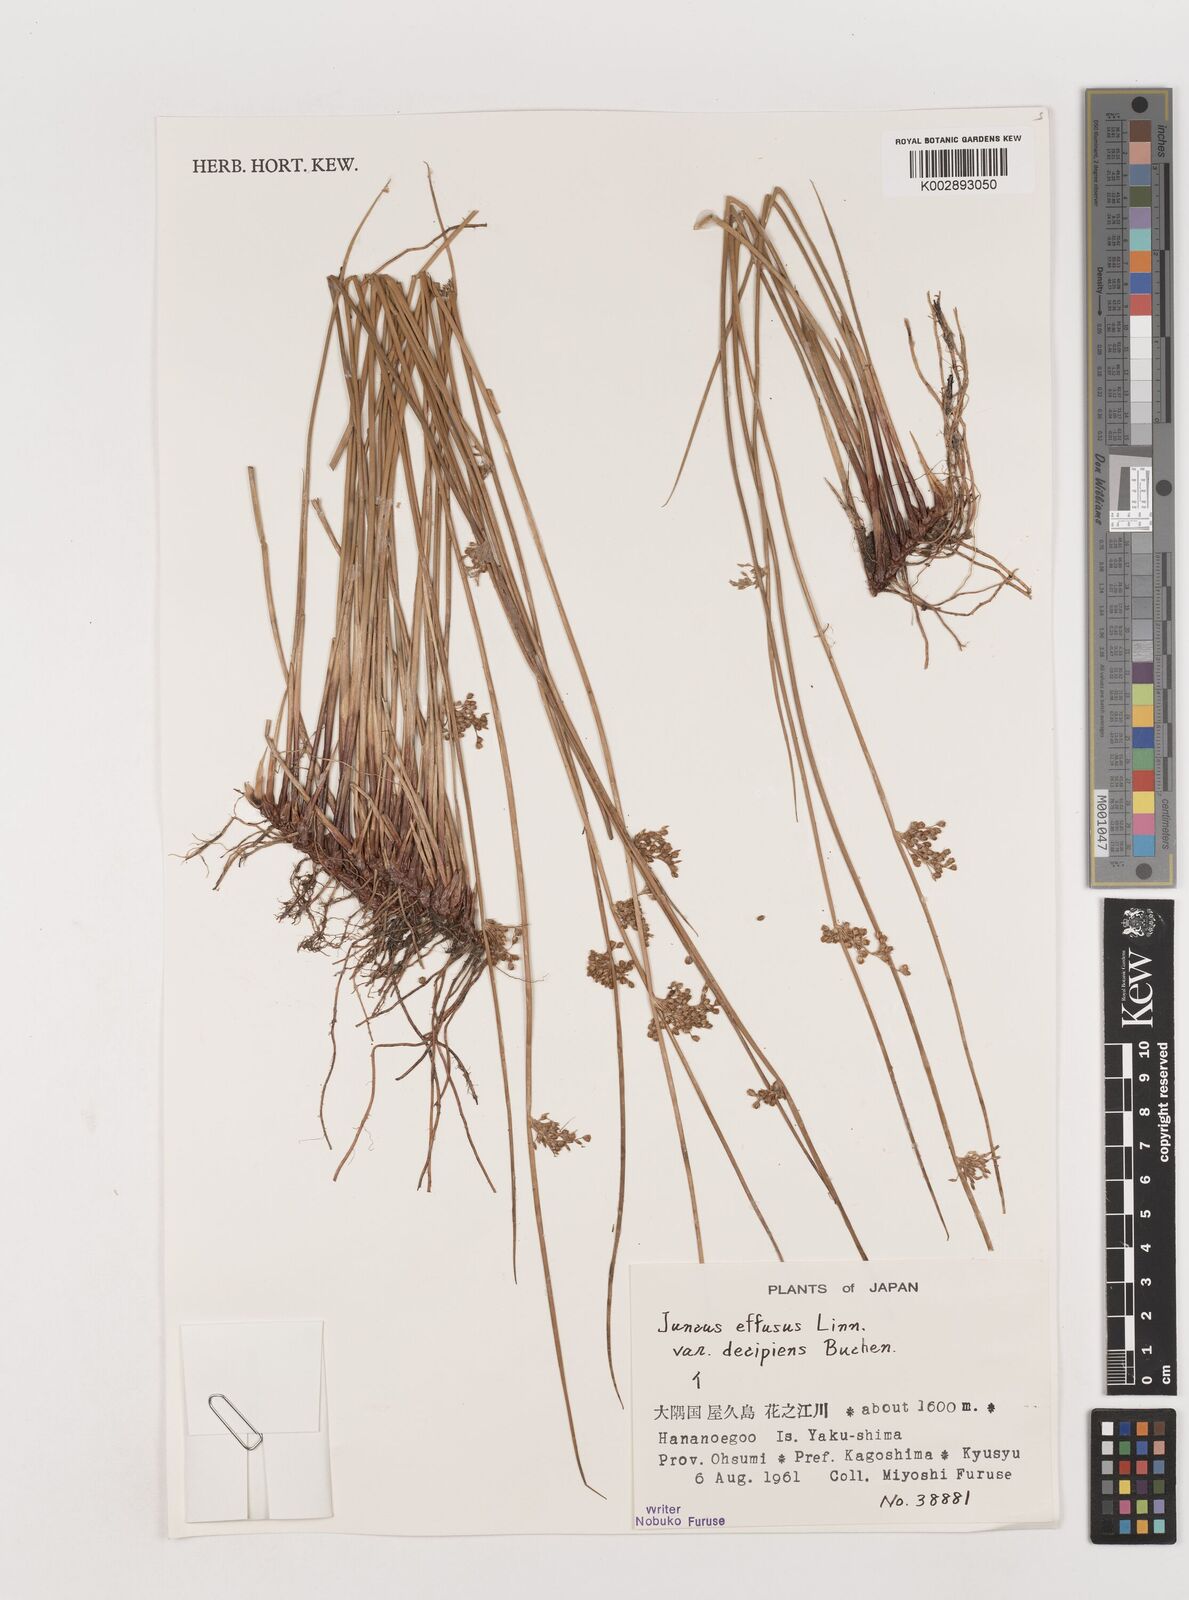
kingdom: Plantae
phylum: Tracheophyta
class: Liliopsida
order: Poales
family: Juncaceae
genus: Juncus
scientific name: Juncus effusus
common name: Soft rush
